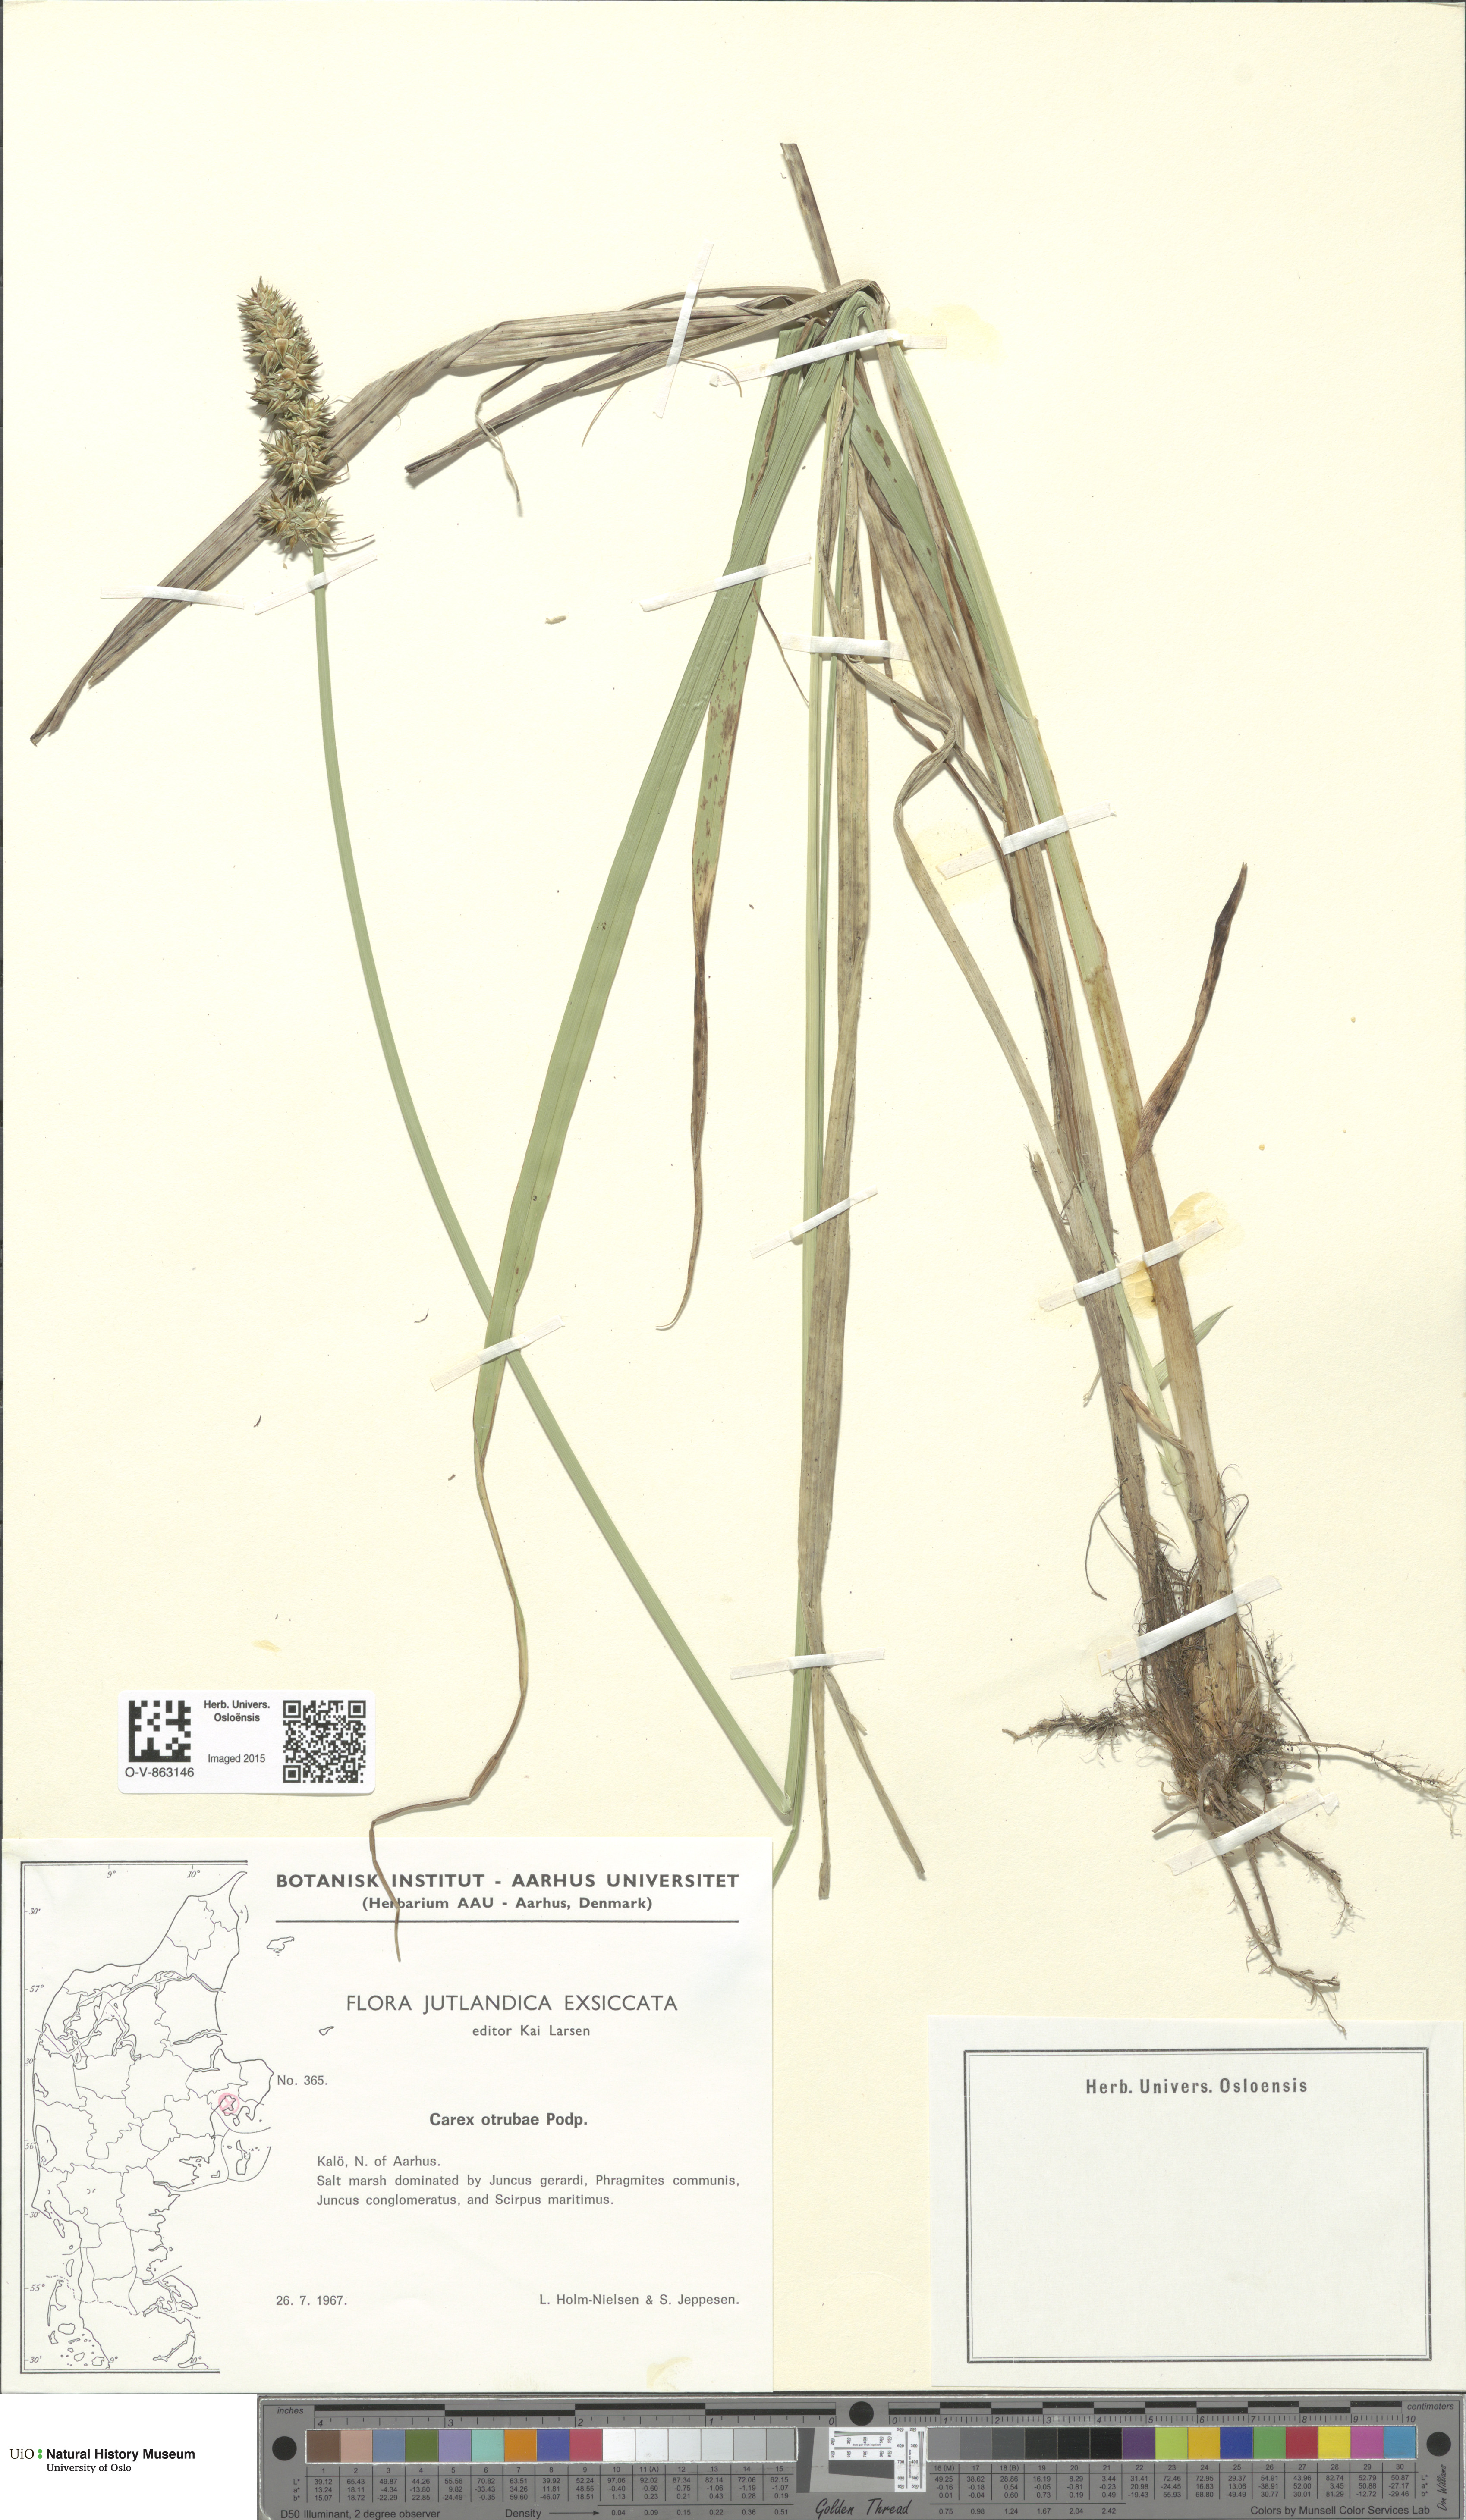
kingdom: Plantae
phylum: Tracheophyta
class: Liliopsida
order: Poales
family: Cyperaceae
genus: Carex
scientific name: Carex otrubae
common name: False fox-sedge
